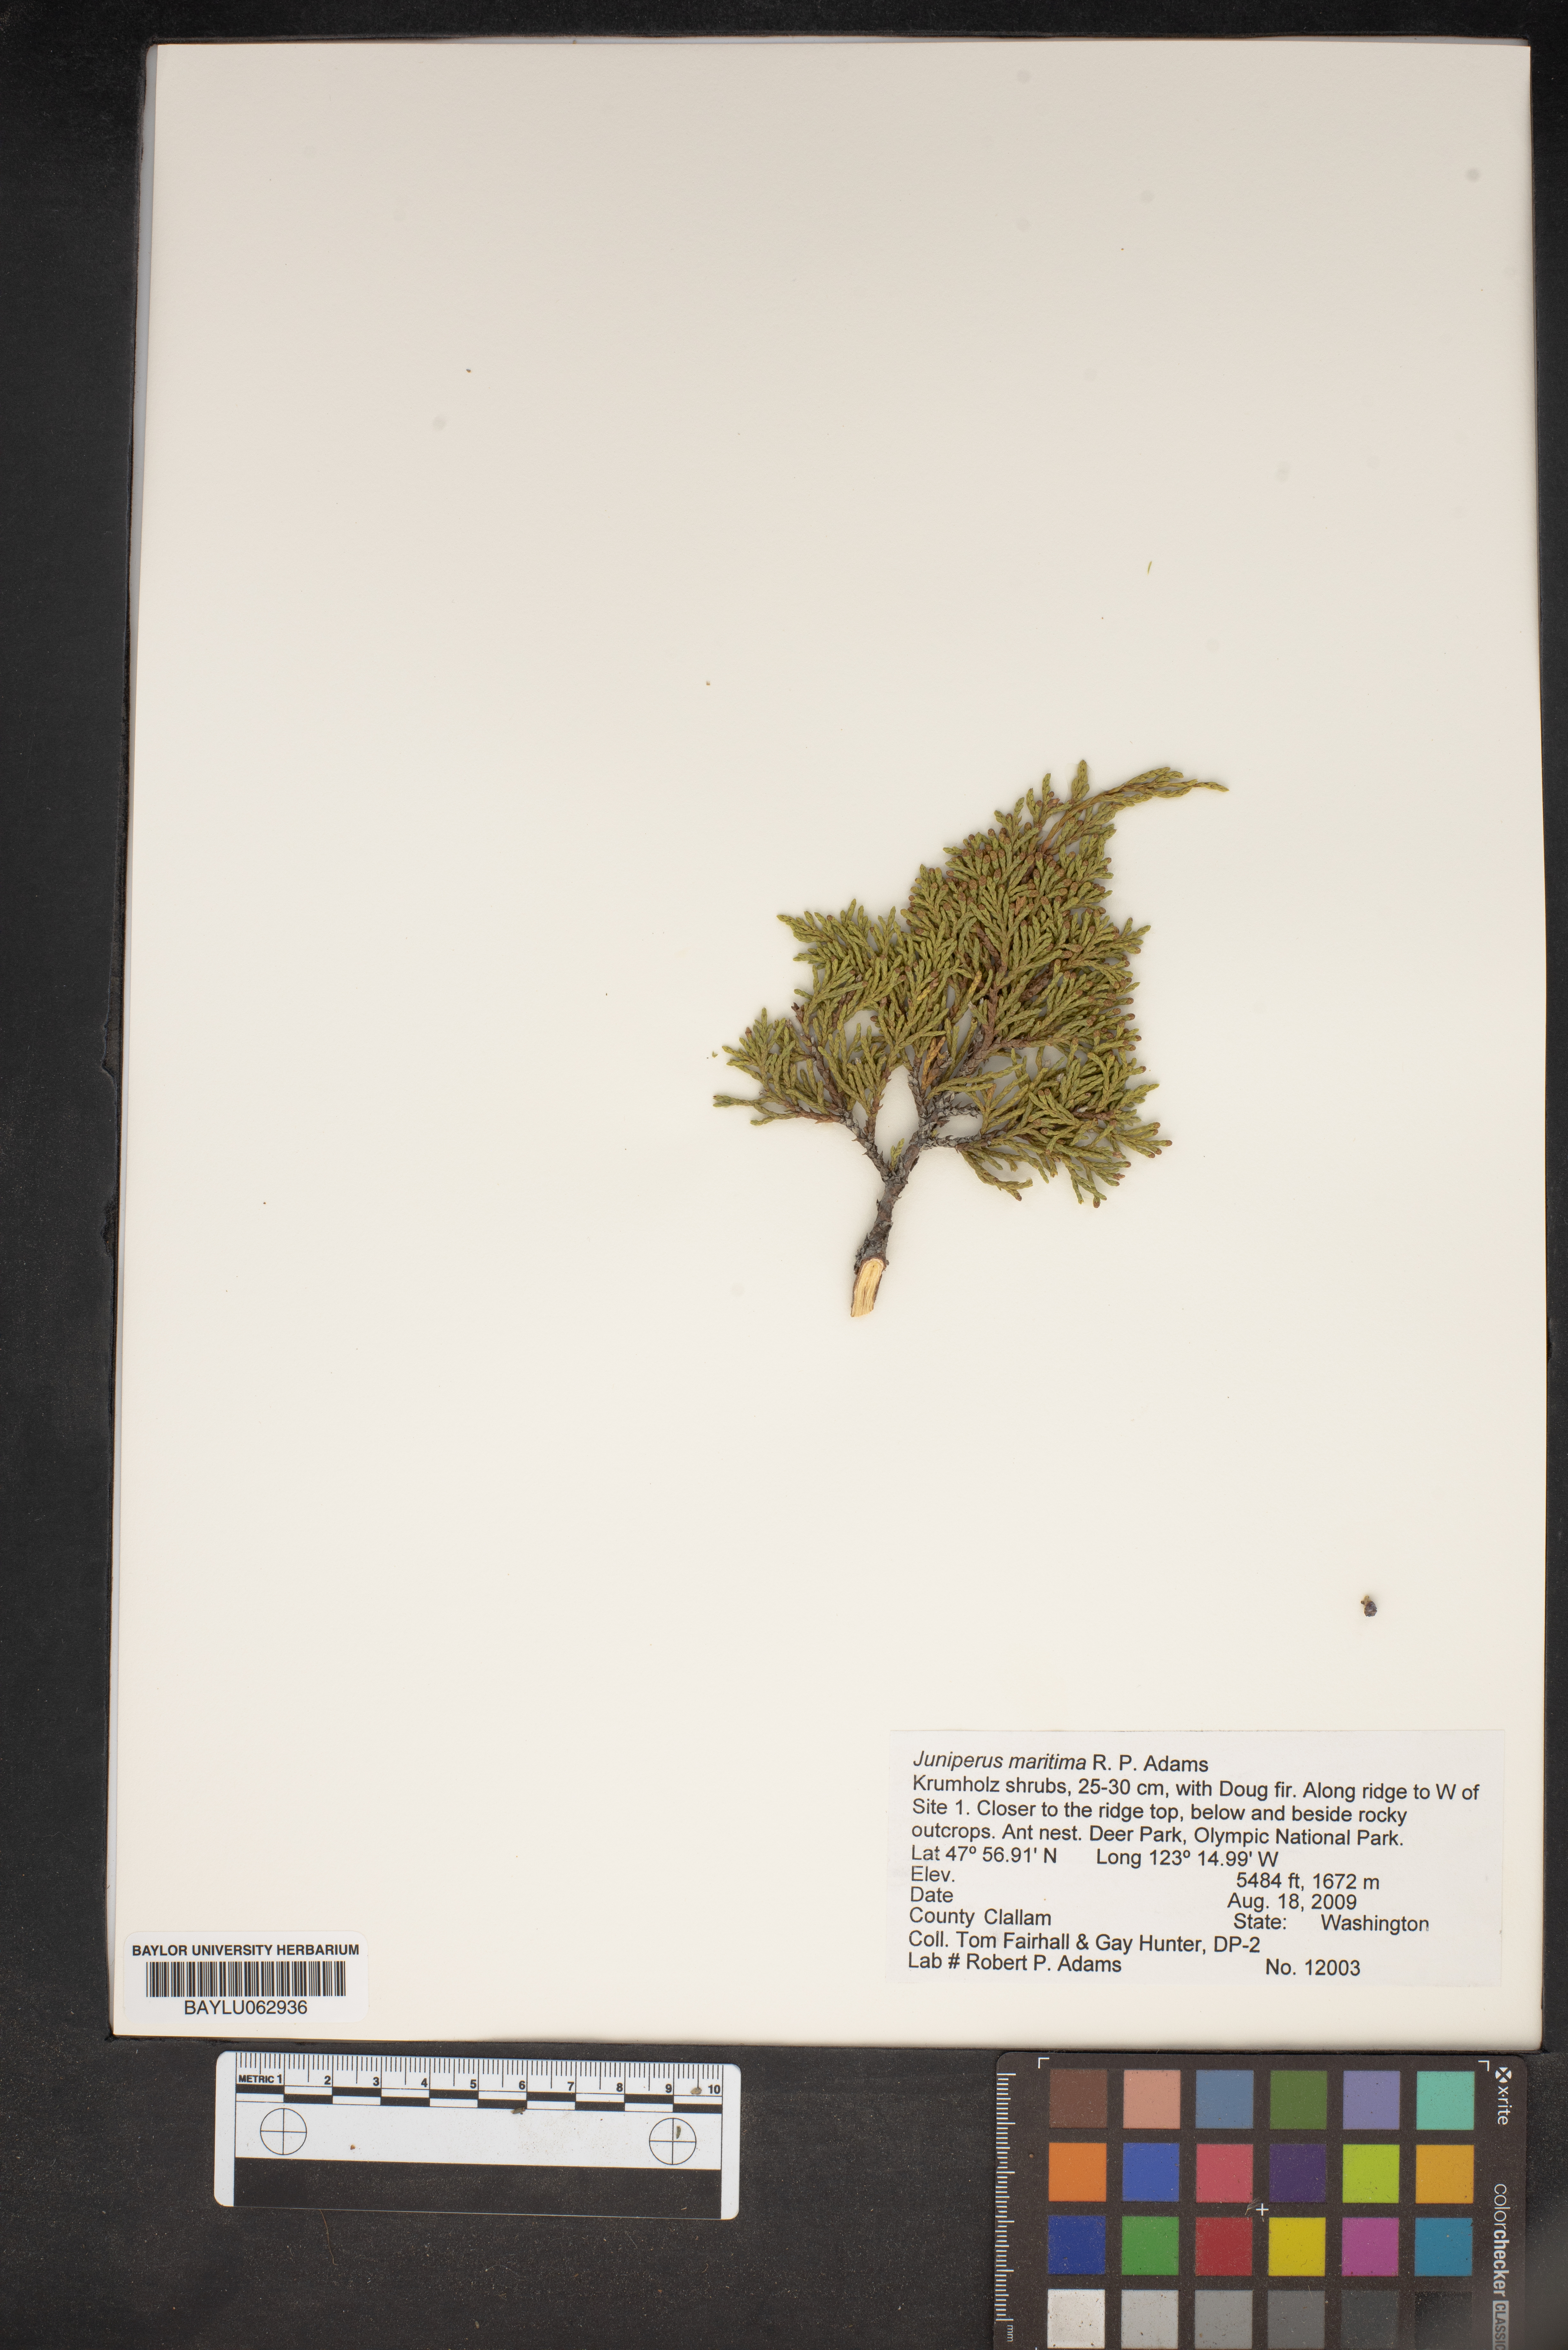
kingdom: Plantae
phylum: Tracheophyta
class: Pinopsida
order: Pinales
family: Cupressaceae
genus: Juniperus
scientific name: Juniperus scopulorum
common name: Rocky mountain juniper
